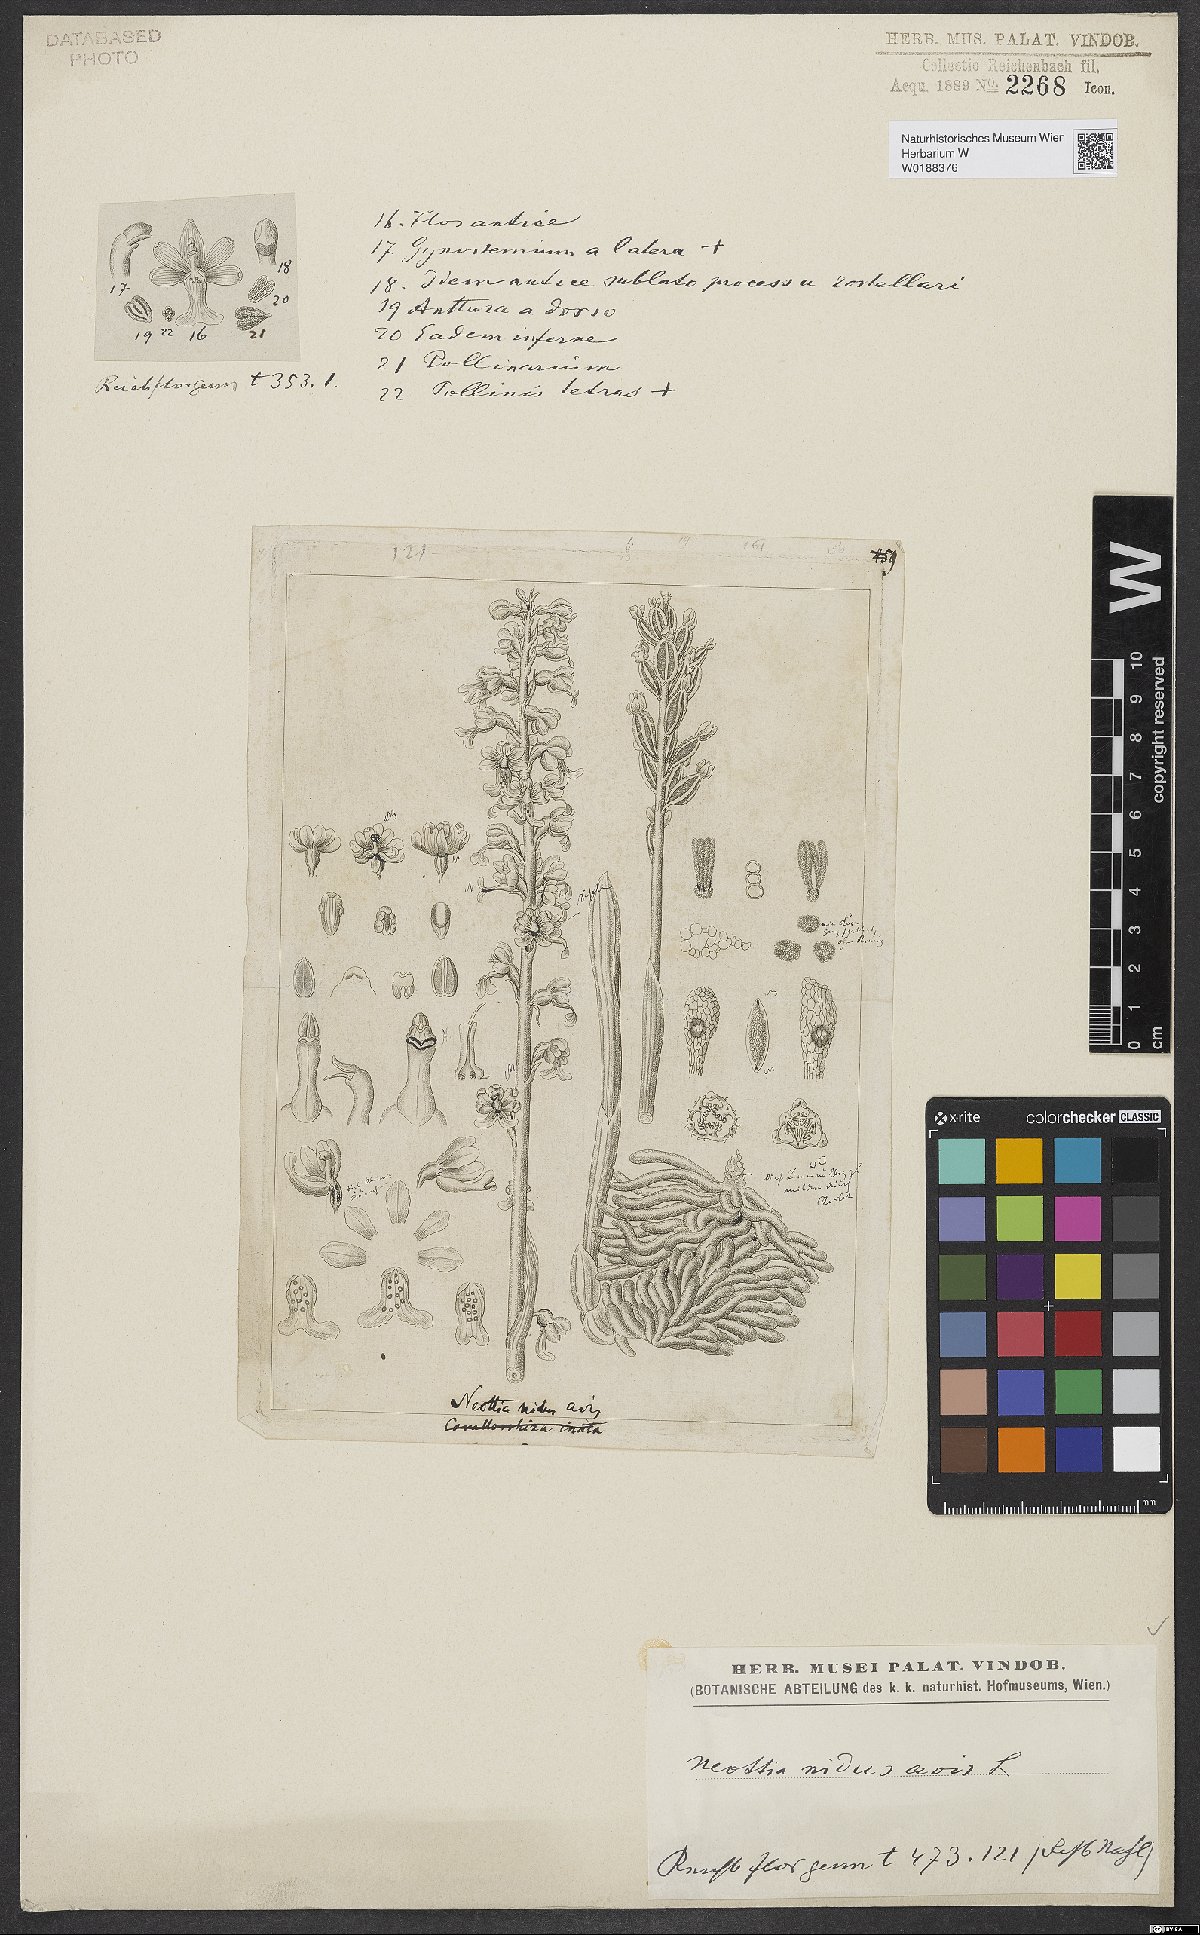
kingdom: Plantae
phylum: Tracheophyta
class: Liliopsida
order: Asparagales
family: Orchidaceae
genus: Neottia
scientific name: Neottia nidus-avis
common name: Bird's-nest orchid
